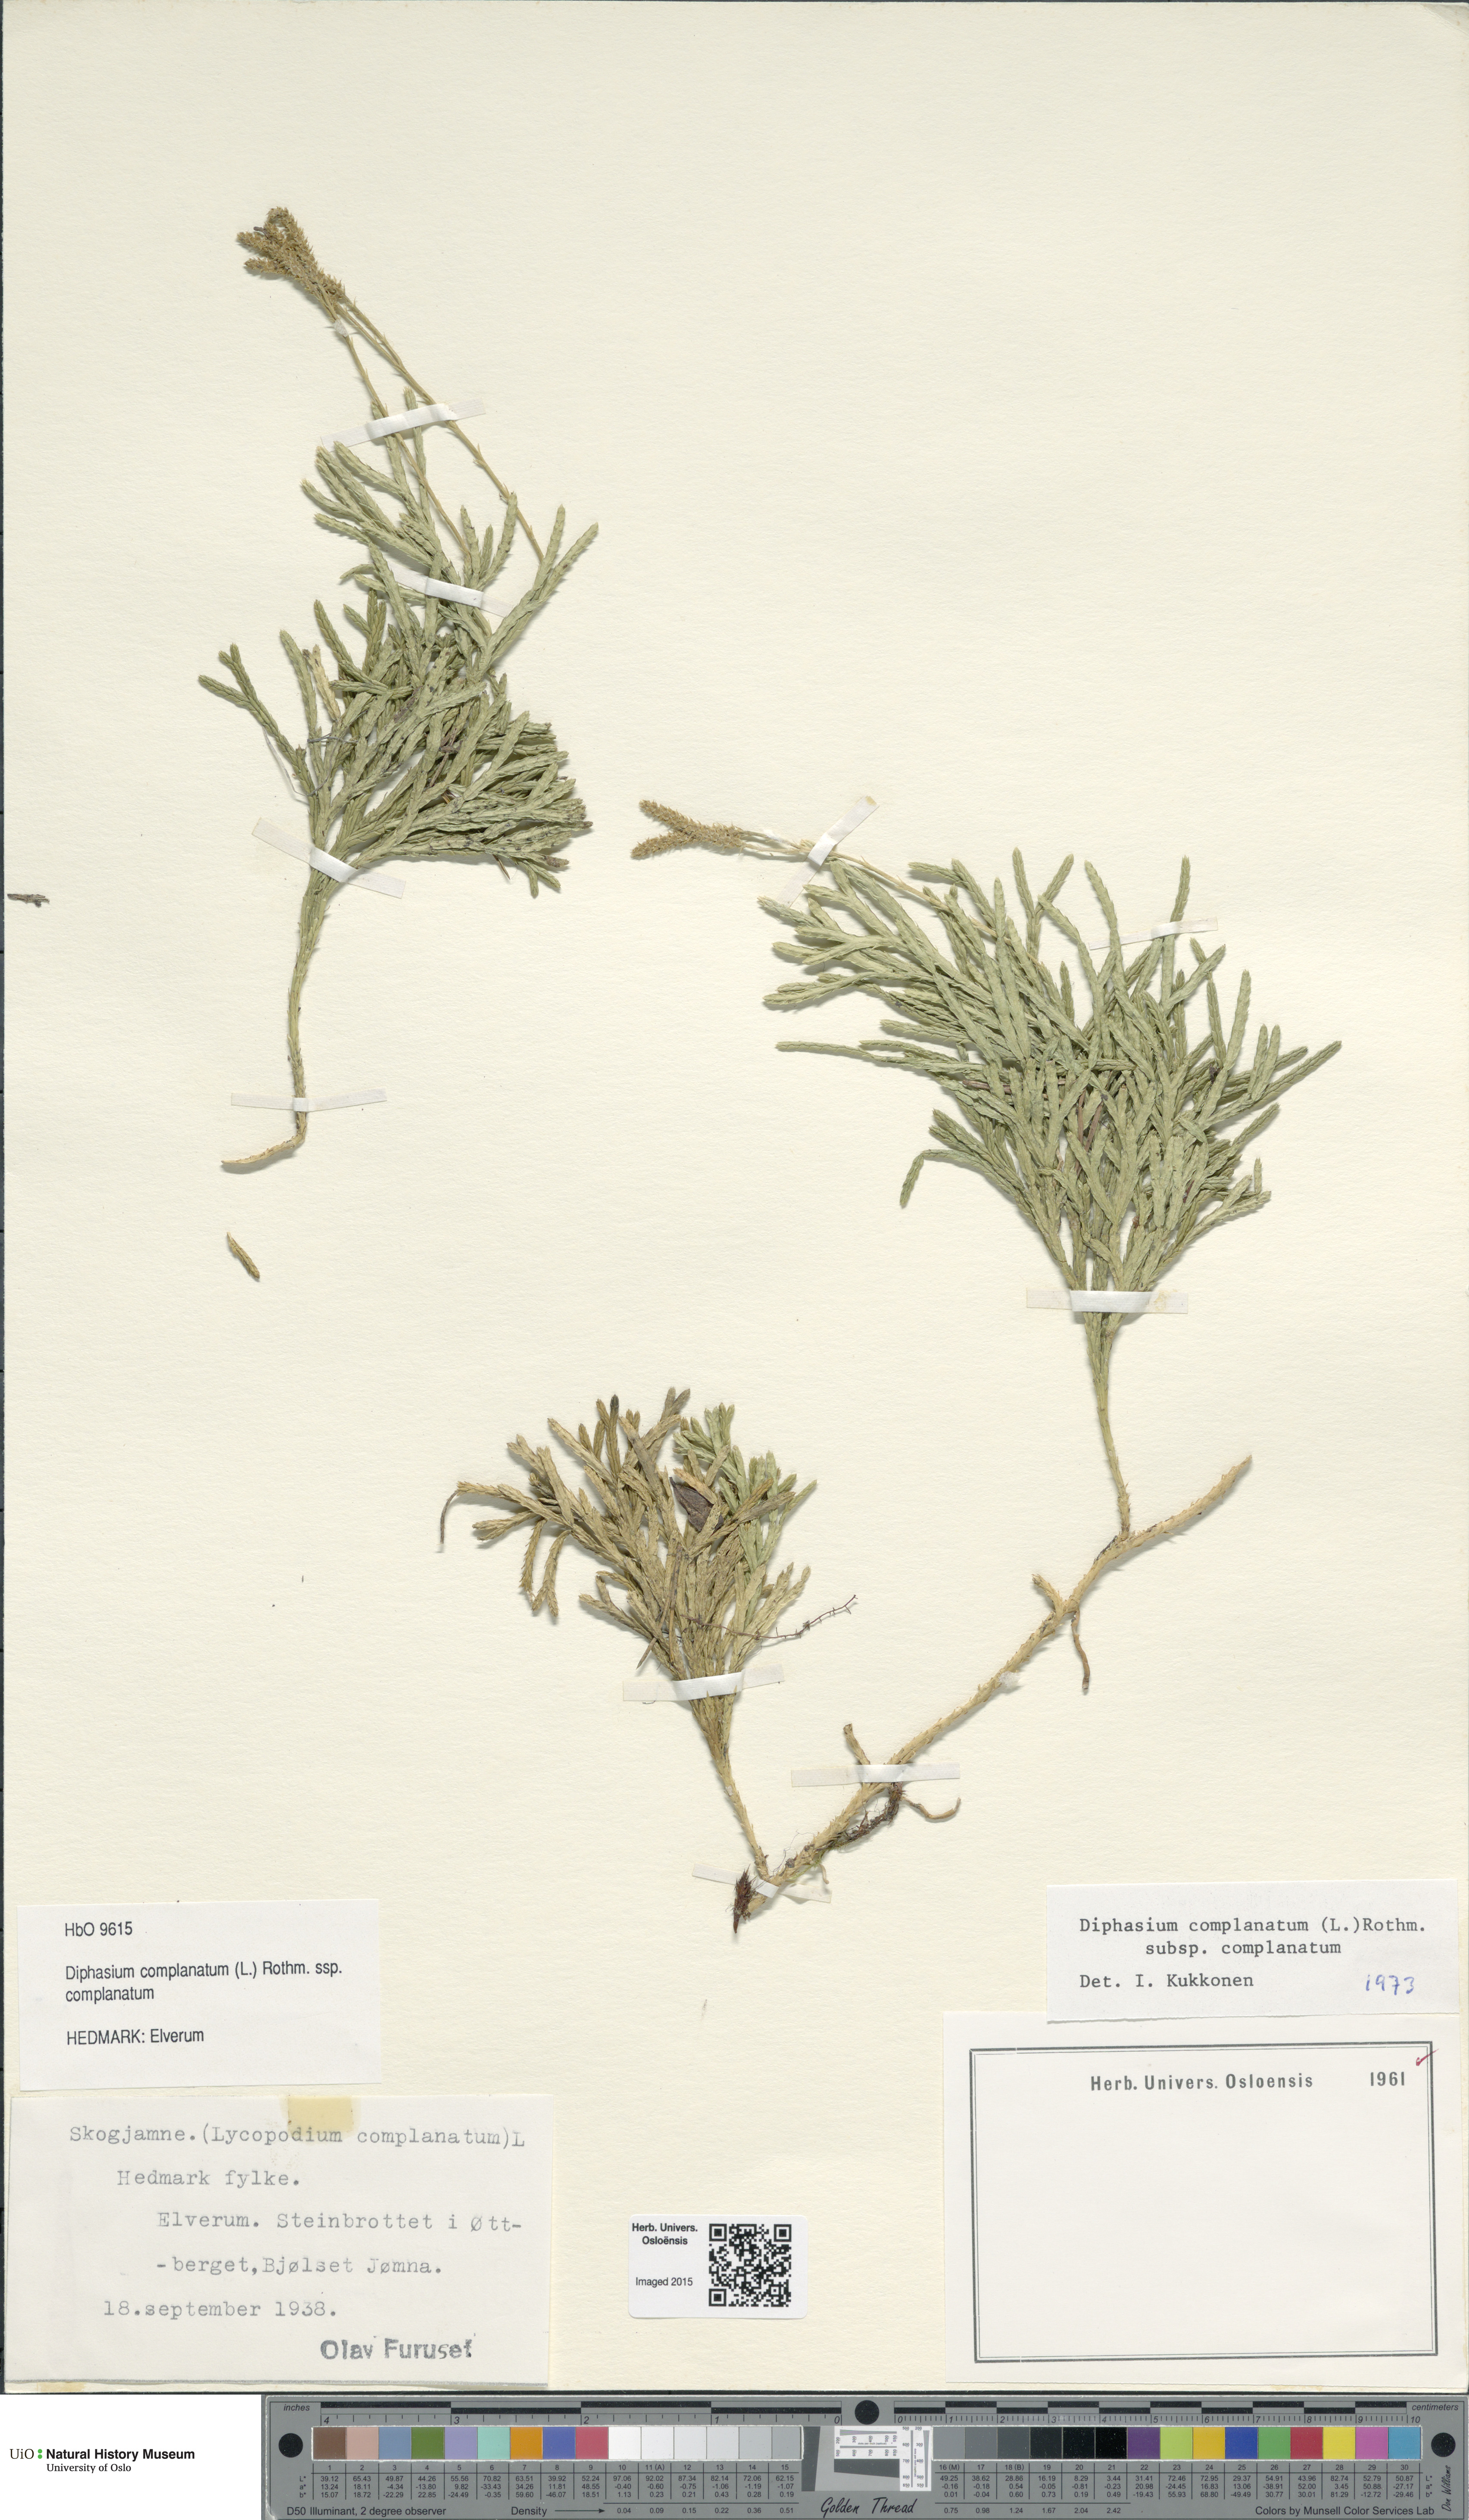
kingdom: Plantae
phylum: Tracheophyta
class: Lycopodiopsida
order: Lycopodiales
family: Lycopodiaceae
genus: Diphasiastrum
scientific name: Diphasiastrum complanatum
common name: Northern running-pine
